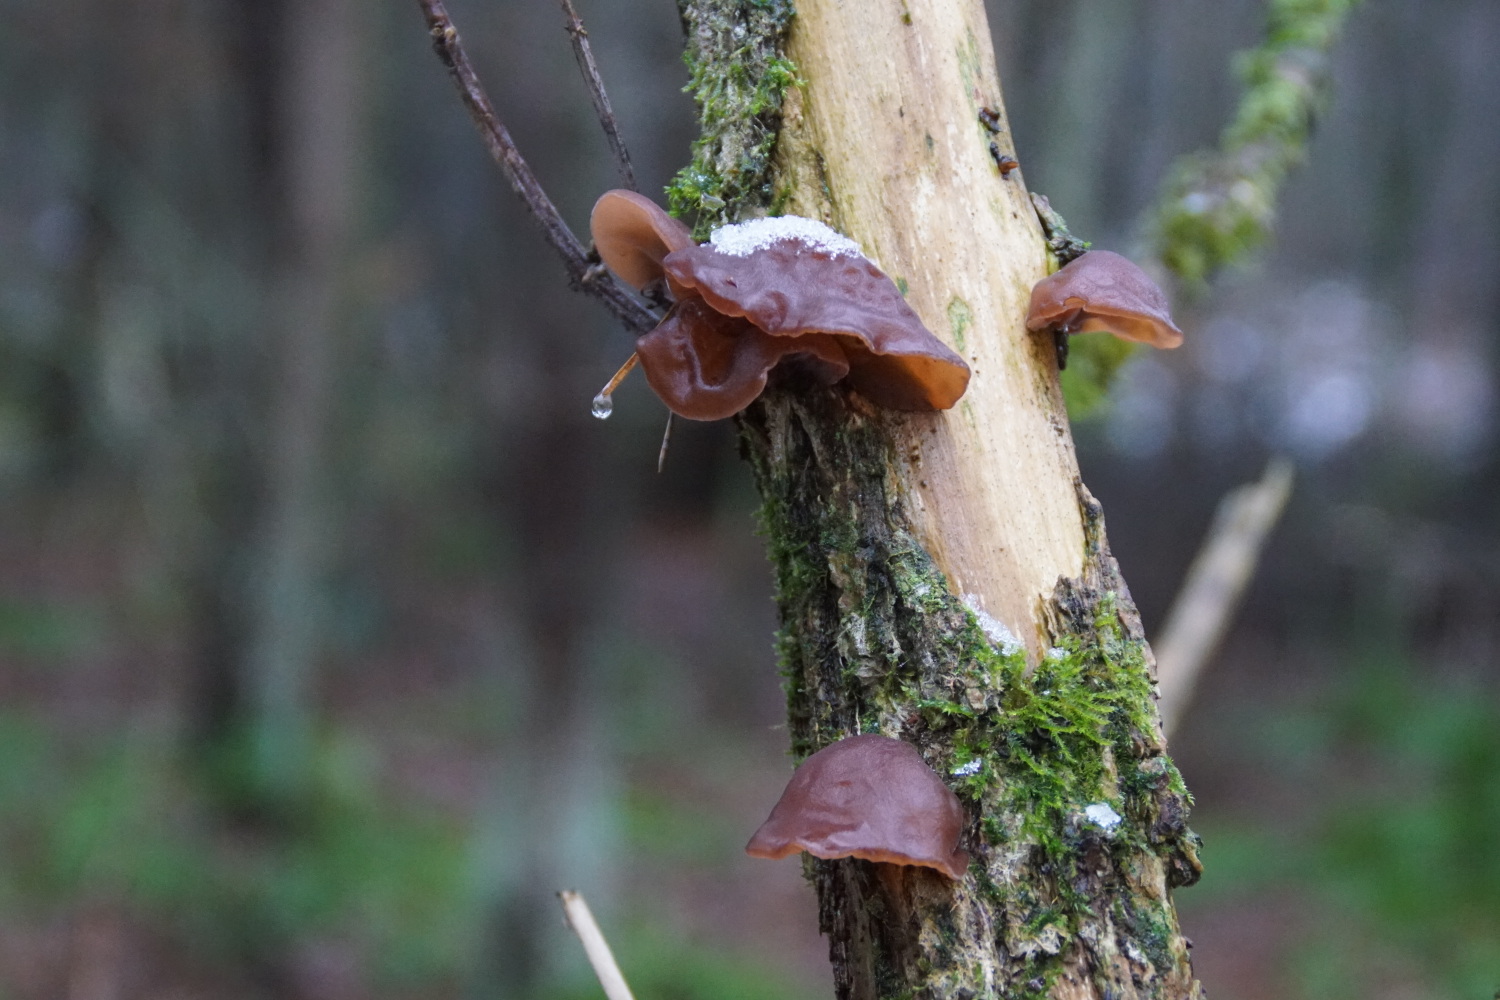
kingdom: Fungi
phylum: Basidiomycota
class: Agaricomycetes
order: Auriculariales
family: Auriculariaceae
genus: Auricularia
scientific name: Auricularia auricula-judae
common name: almindelig judasøre
